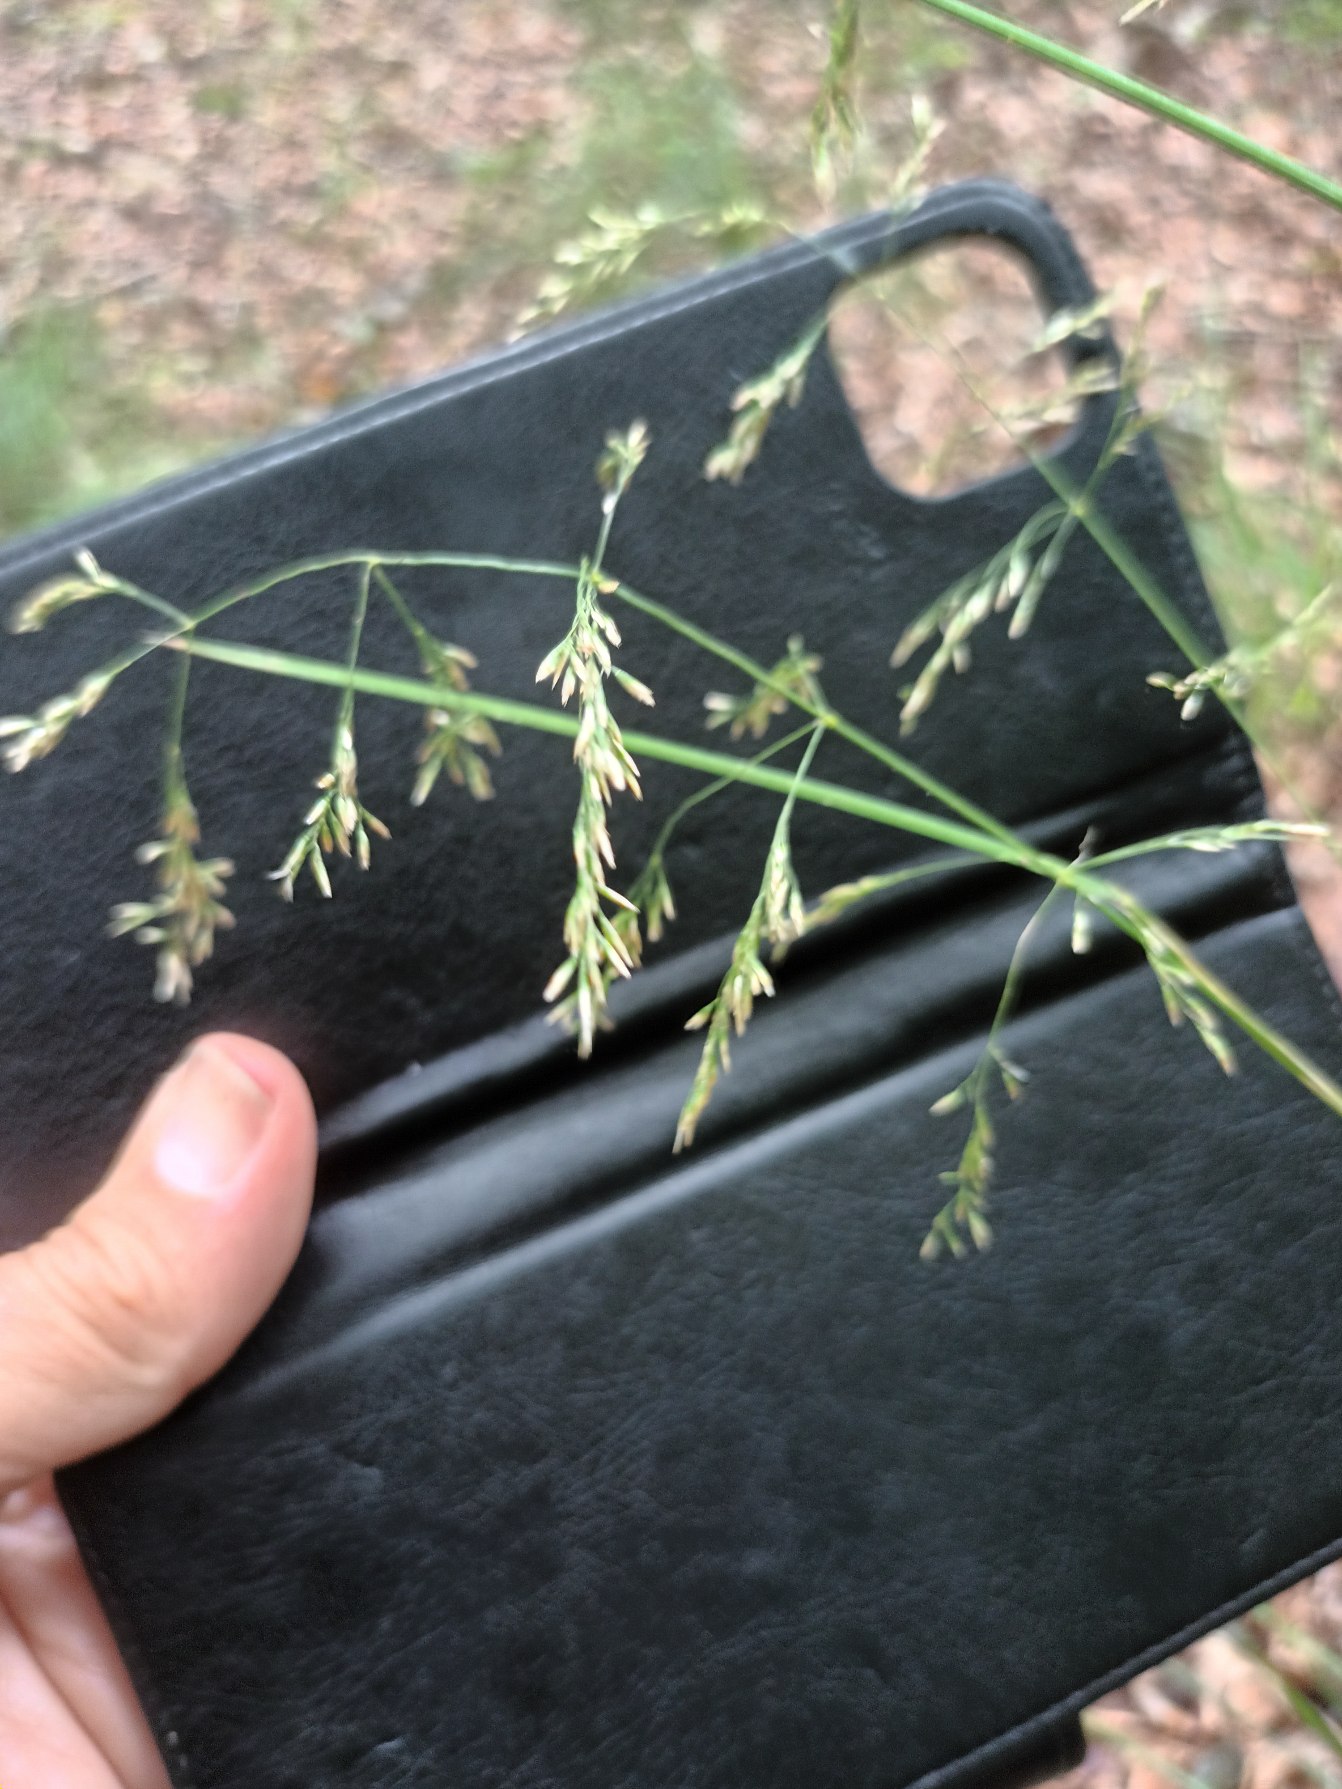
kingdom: Plantae
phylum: Tracheophyta
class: Liliopsida
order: Poales
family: Poaceae
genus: Deschampsia
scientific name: Deschampsia cespitosa
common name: Mose-bunke
